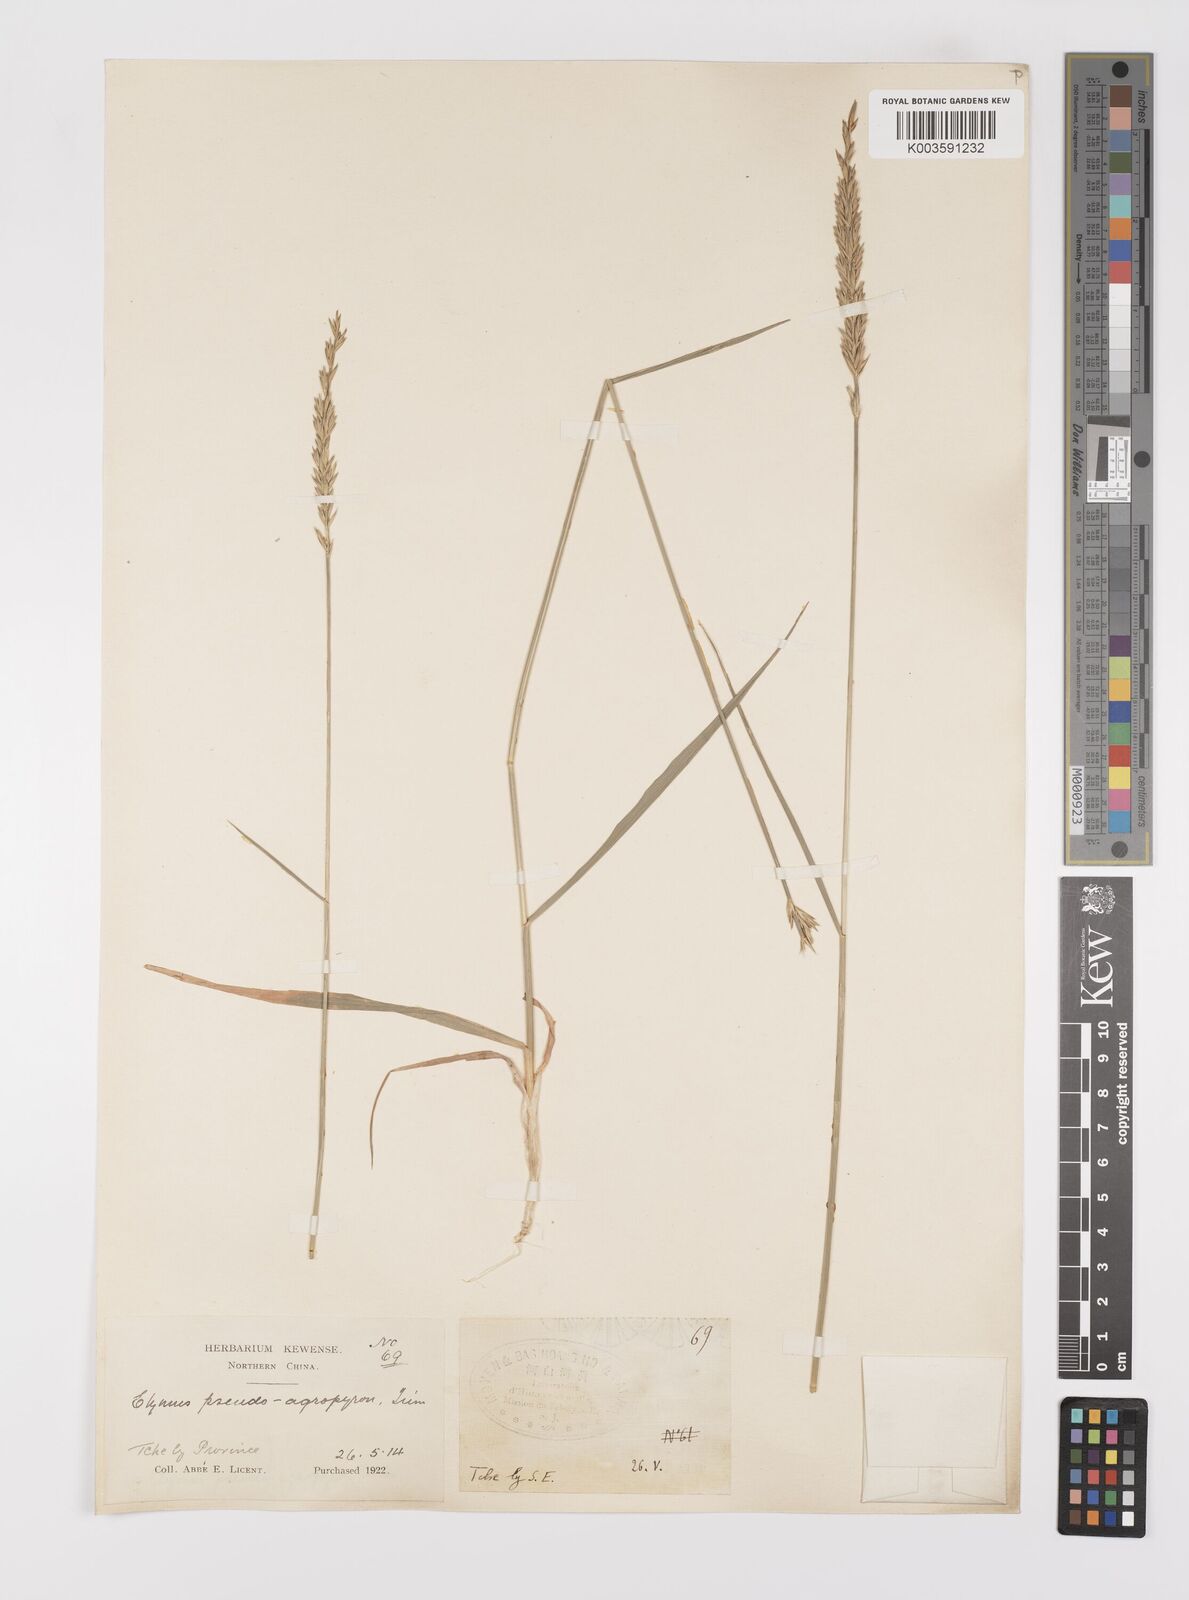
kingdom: Plantae
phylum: Tracheophyta
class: Liliopsida
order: Poales
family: Poaceae
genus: Leymus
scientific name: Leymus chinensis
